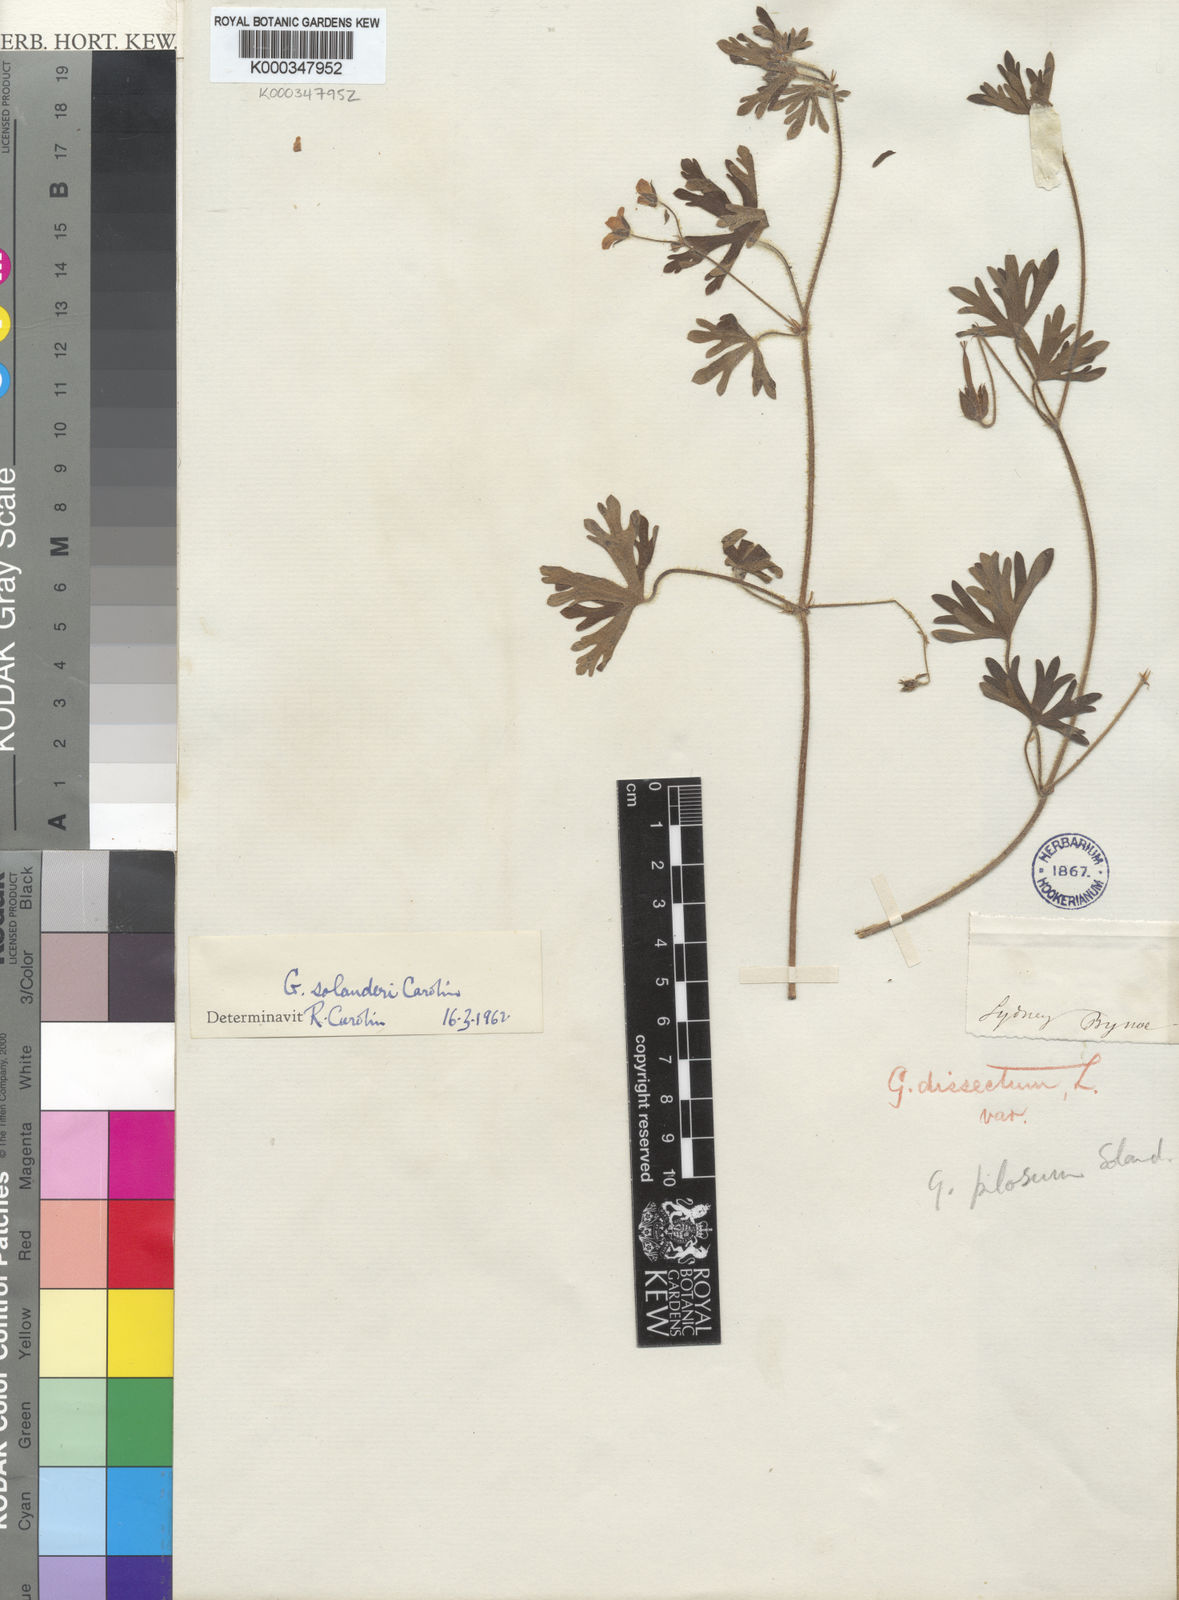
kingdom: Plantae
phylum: Tracheophyta
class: Magnoliopsida
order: Geraniales
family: Geraniaceae
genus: Geranium
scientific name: Geranium solanderi
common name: Solander's geranium
